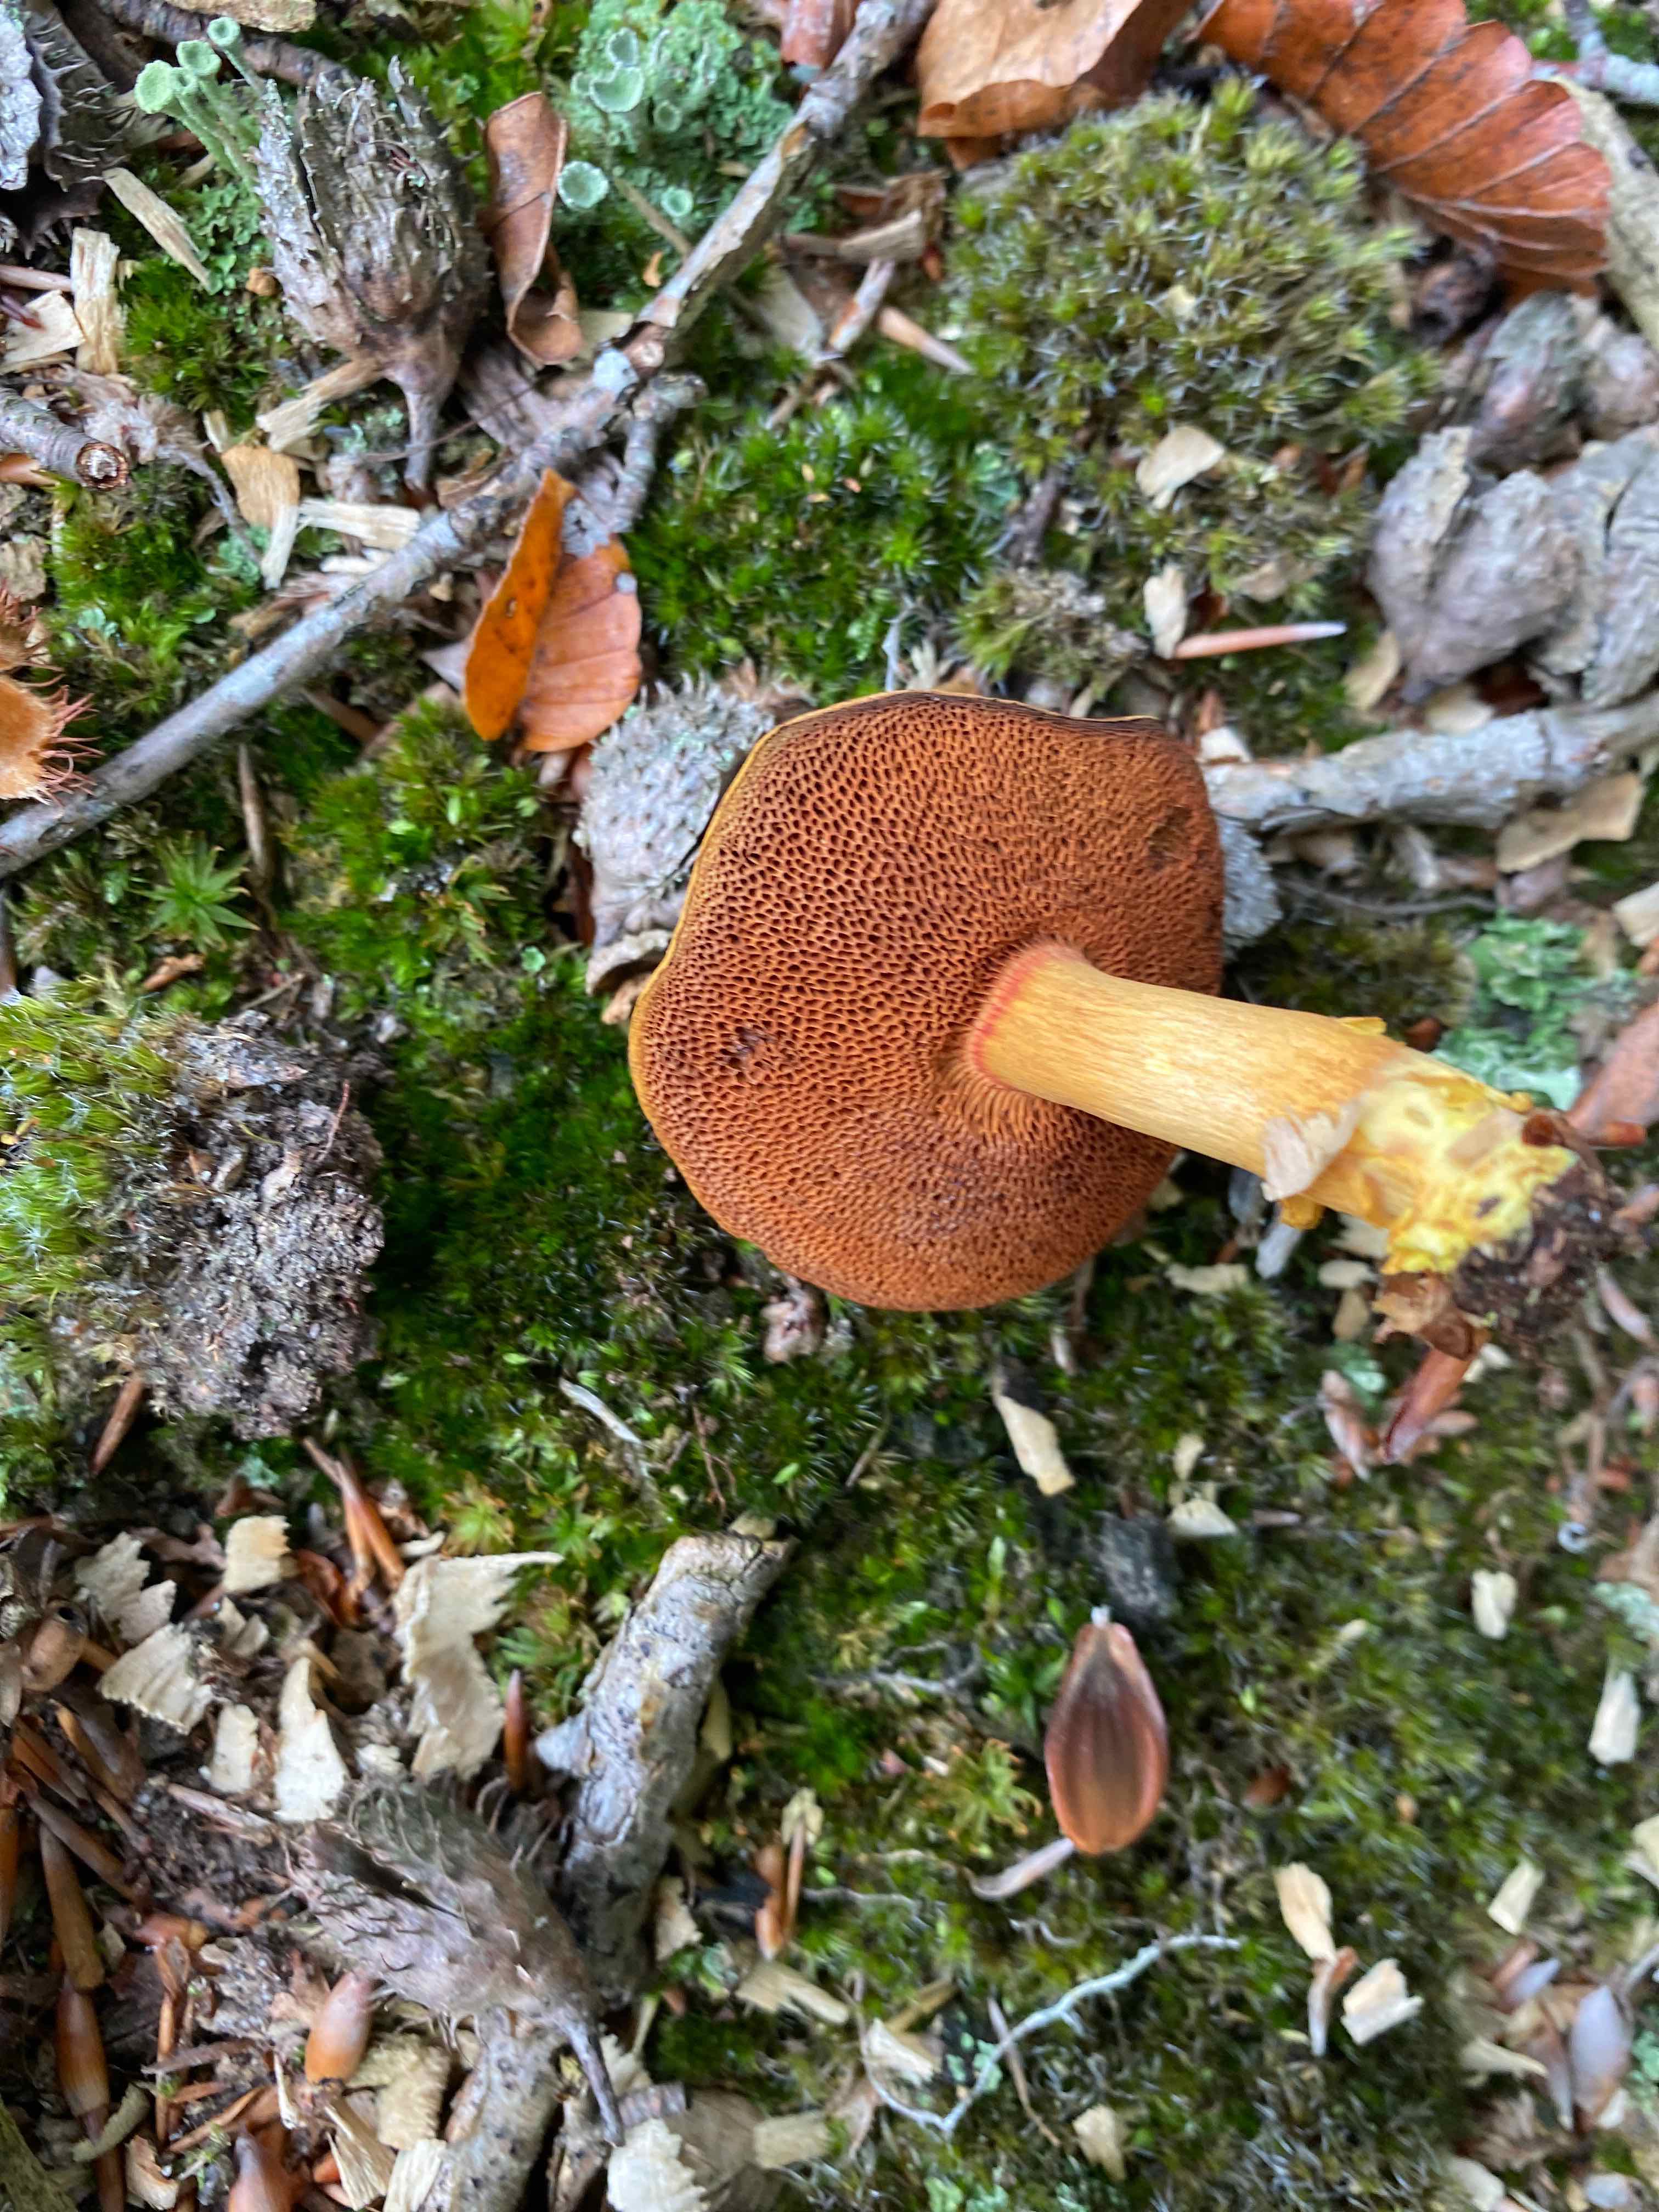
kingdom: Fungi
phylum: Basidiomycota
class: Agaricomycetes
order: Boletales
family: Boletaceae
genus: Chalciporus
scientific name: Chalciporus piperatus
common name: peberrørhat
